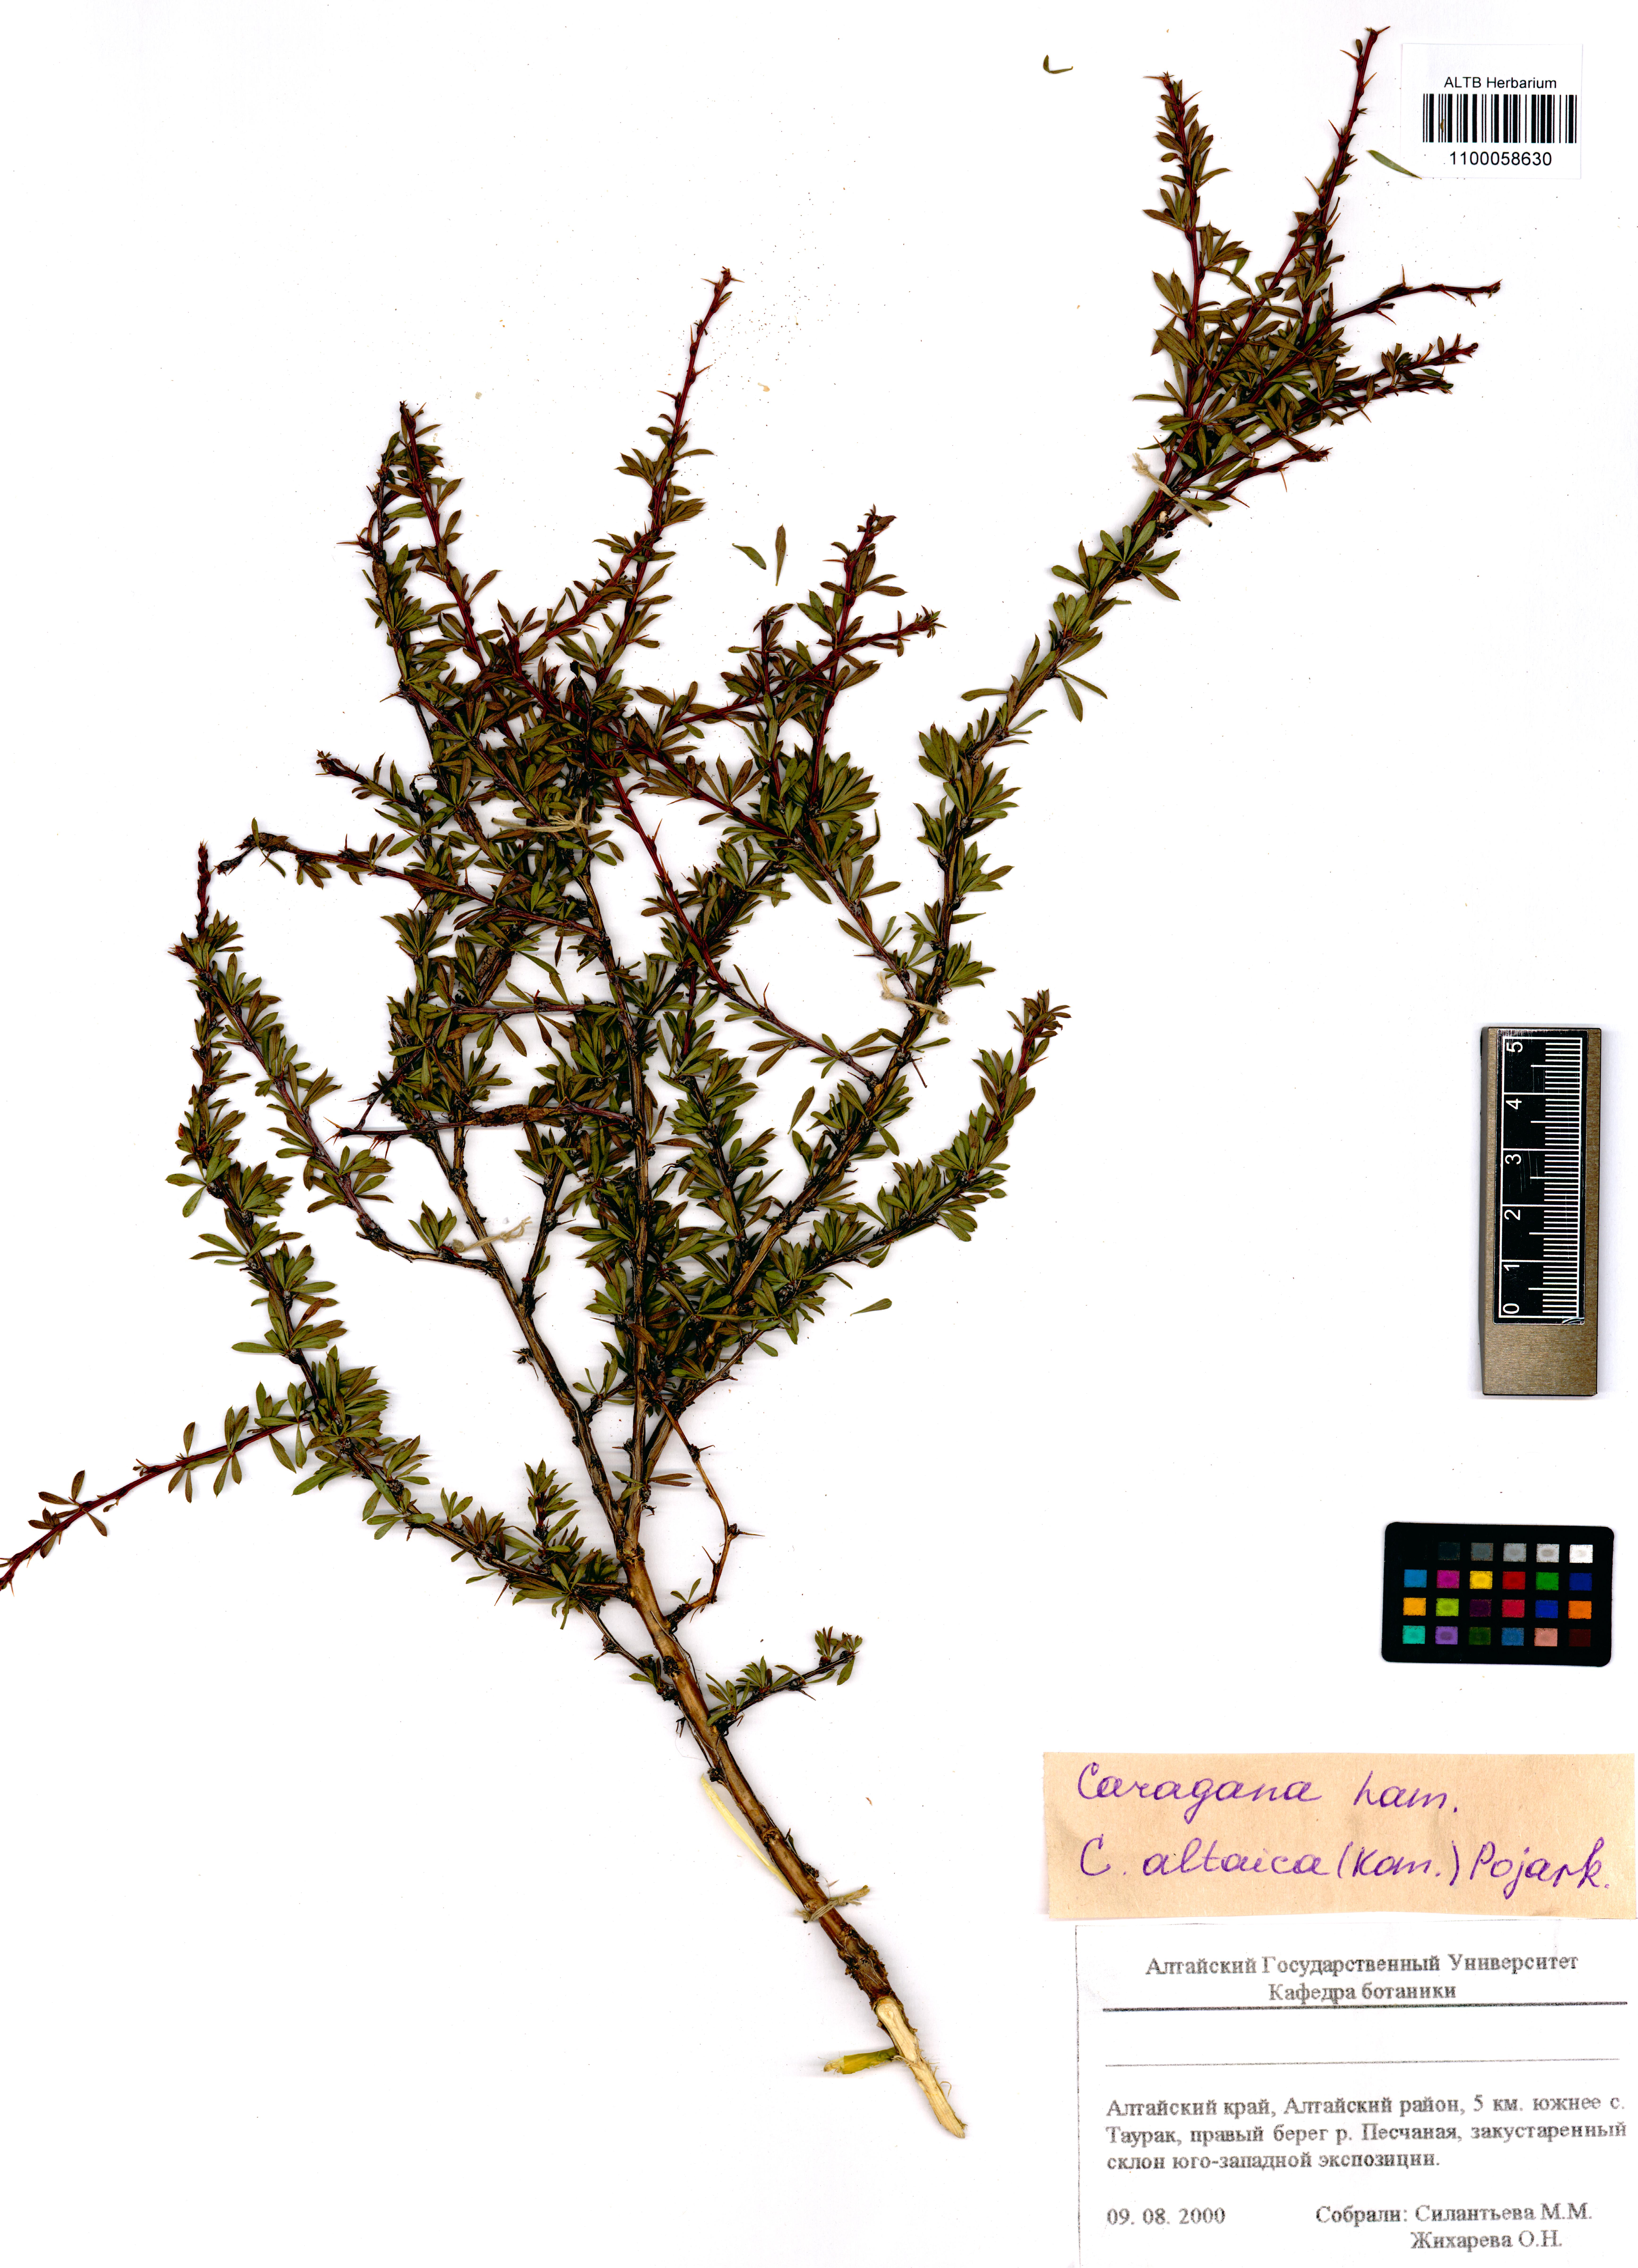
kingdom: Plantae
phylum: Tracheophyta
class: Magnoliopsida
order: Fabales
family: Fabaceae
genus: Caragana
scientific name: Caragana pygmaea
